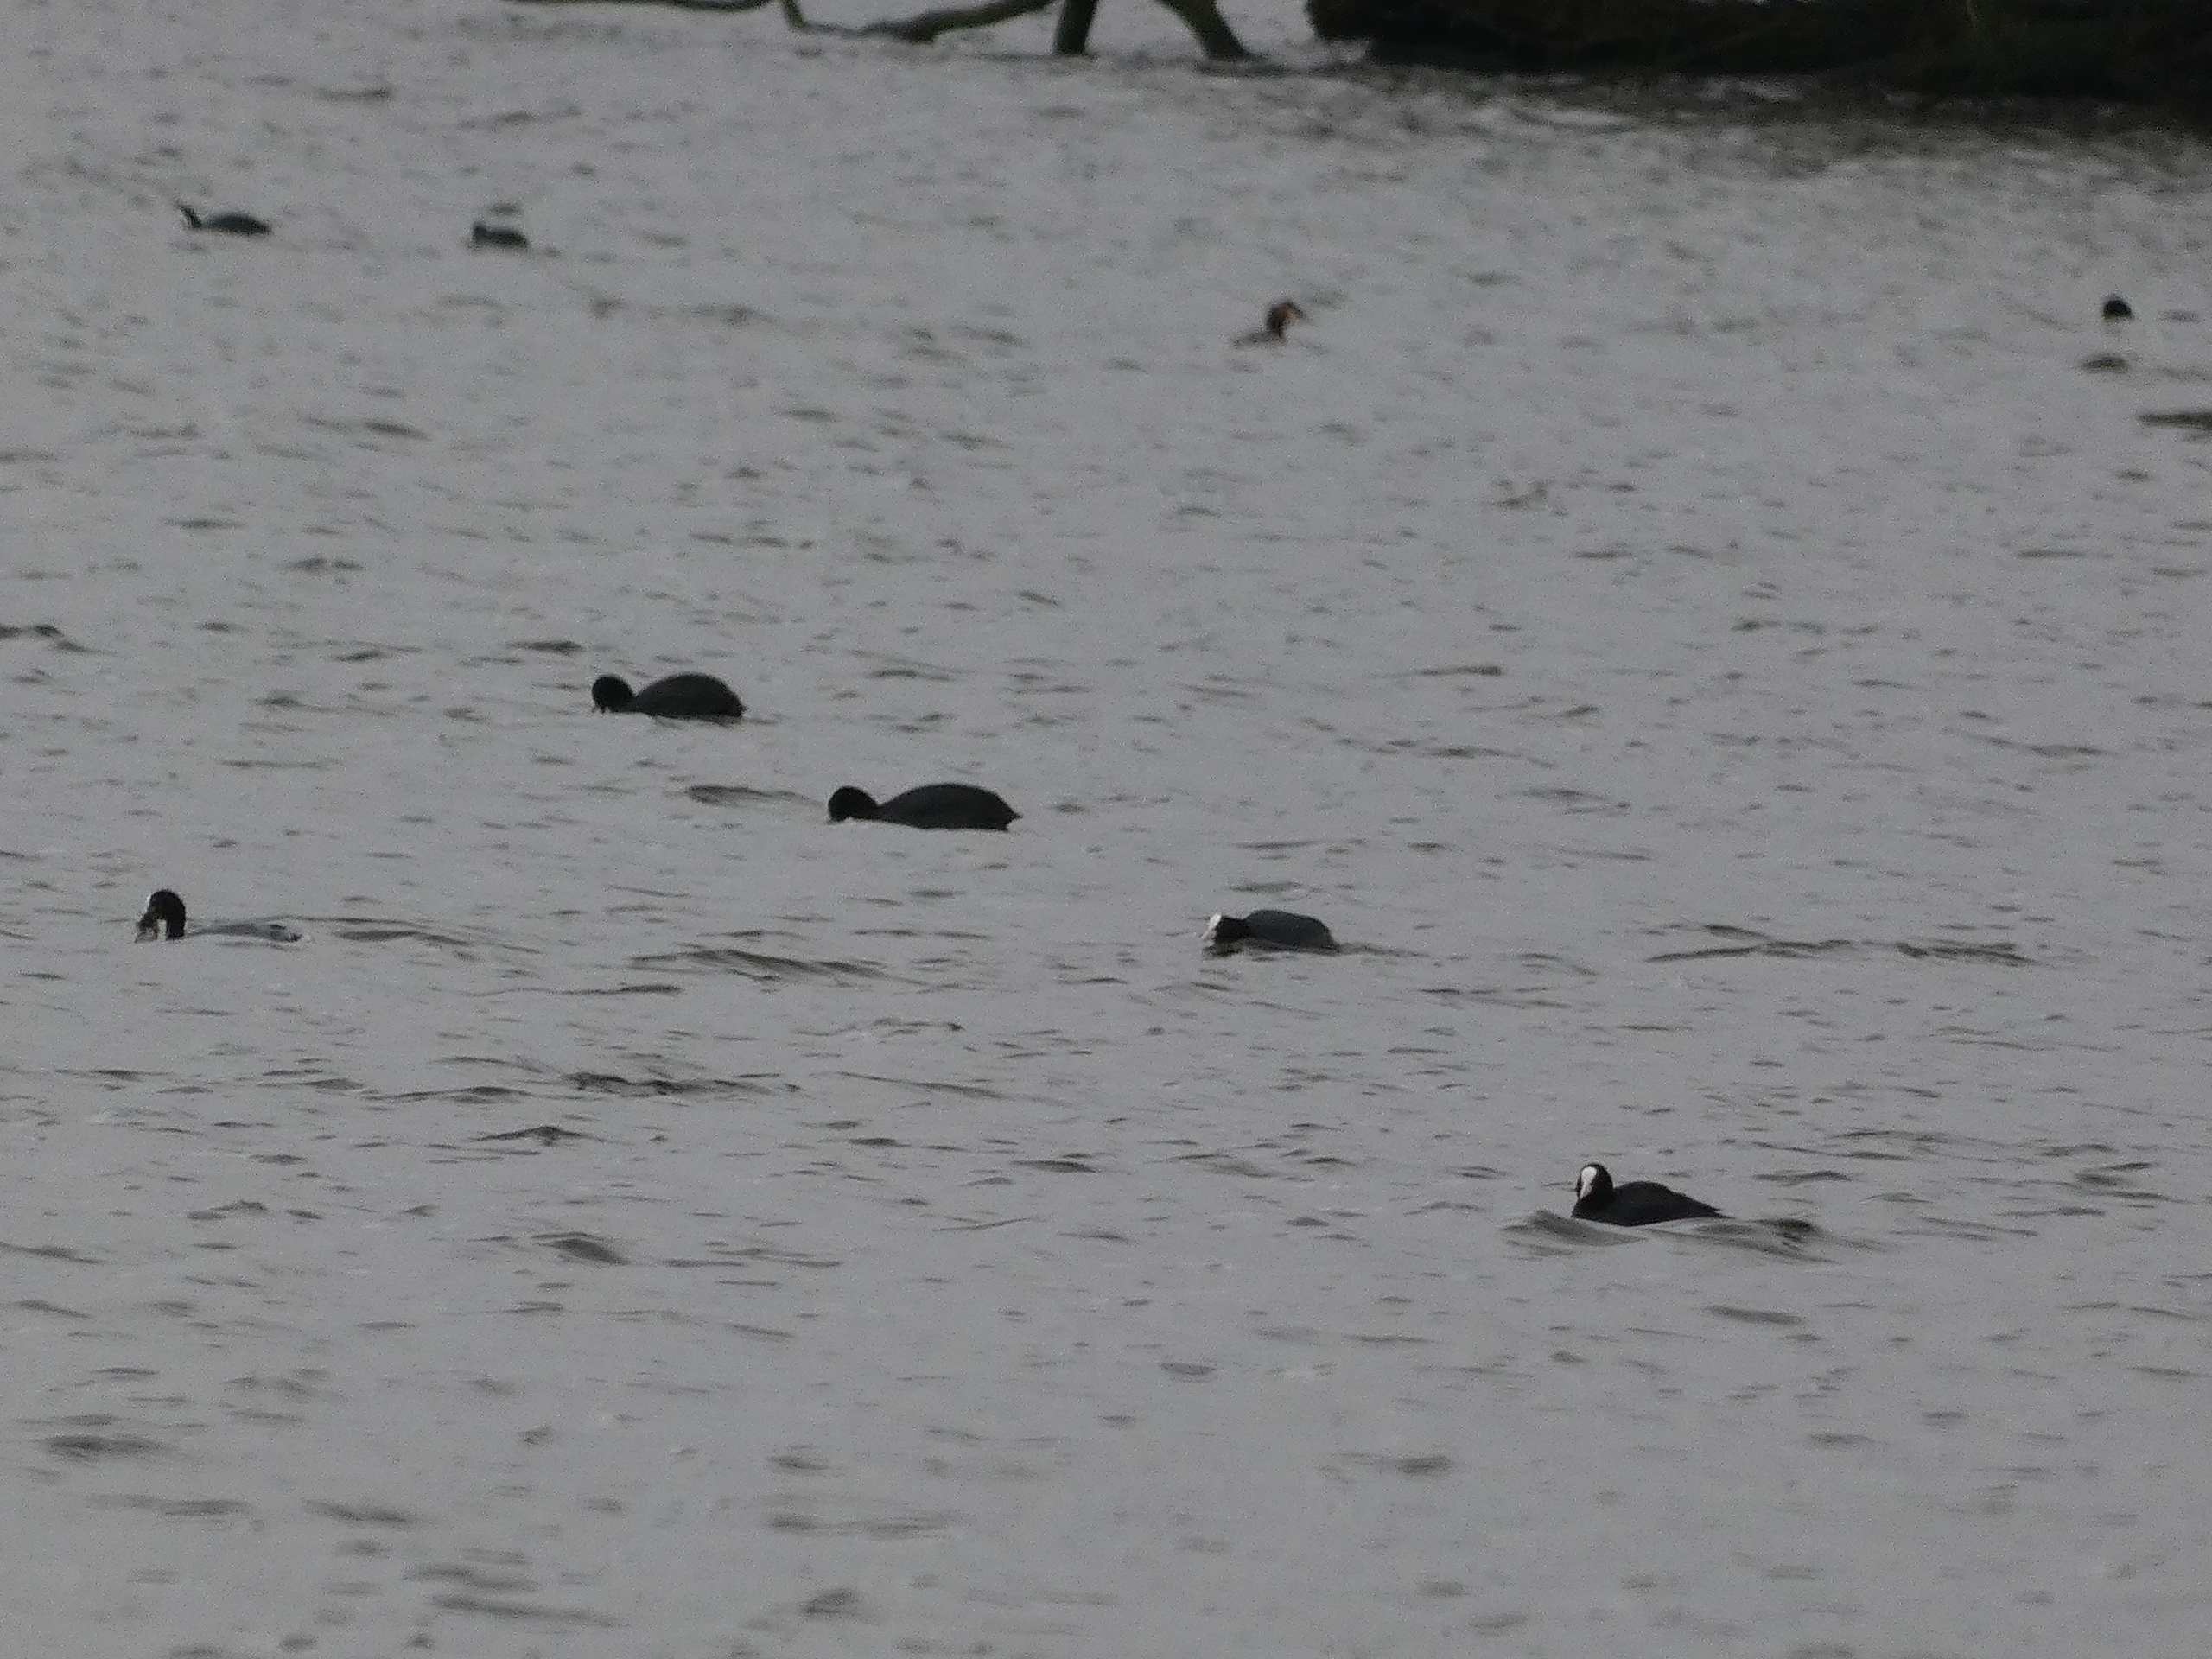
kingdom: Animalia
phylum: Chordata
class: Aves
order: Gruiformes
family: Rallidae
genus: Fulica
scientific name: Fulica atra
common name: Blishøne
